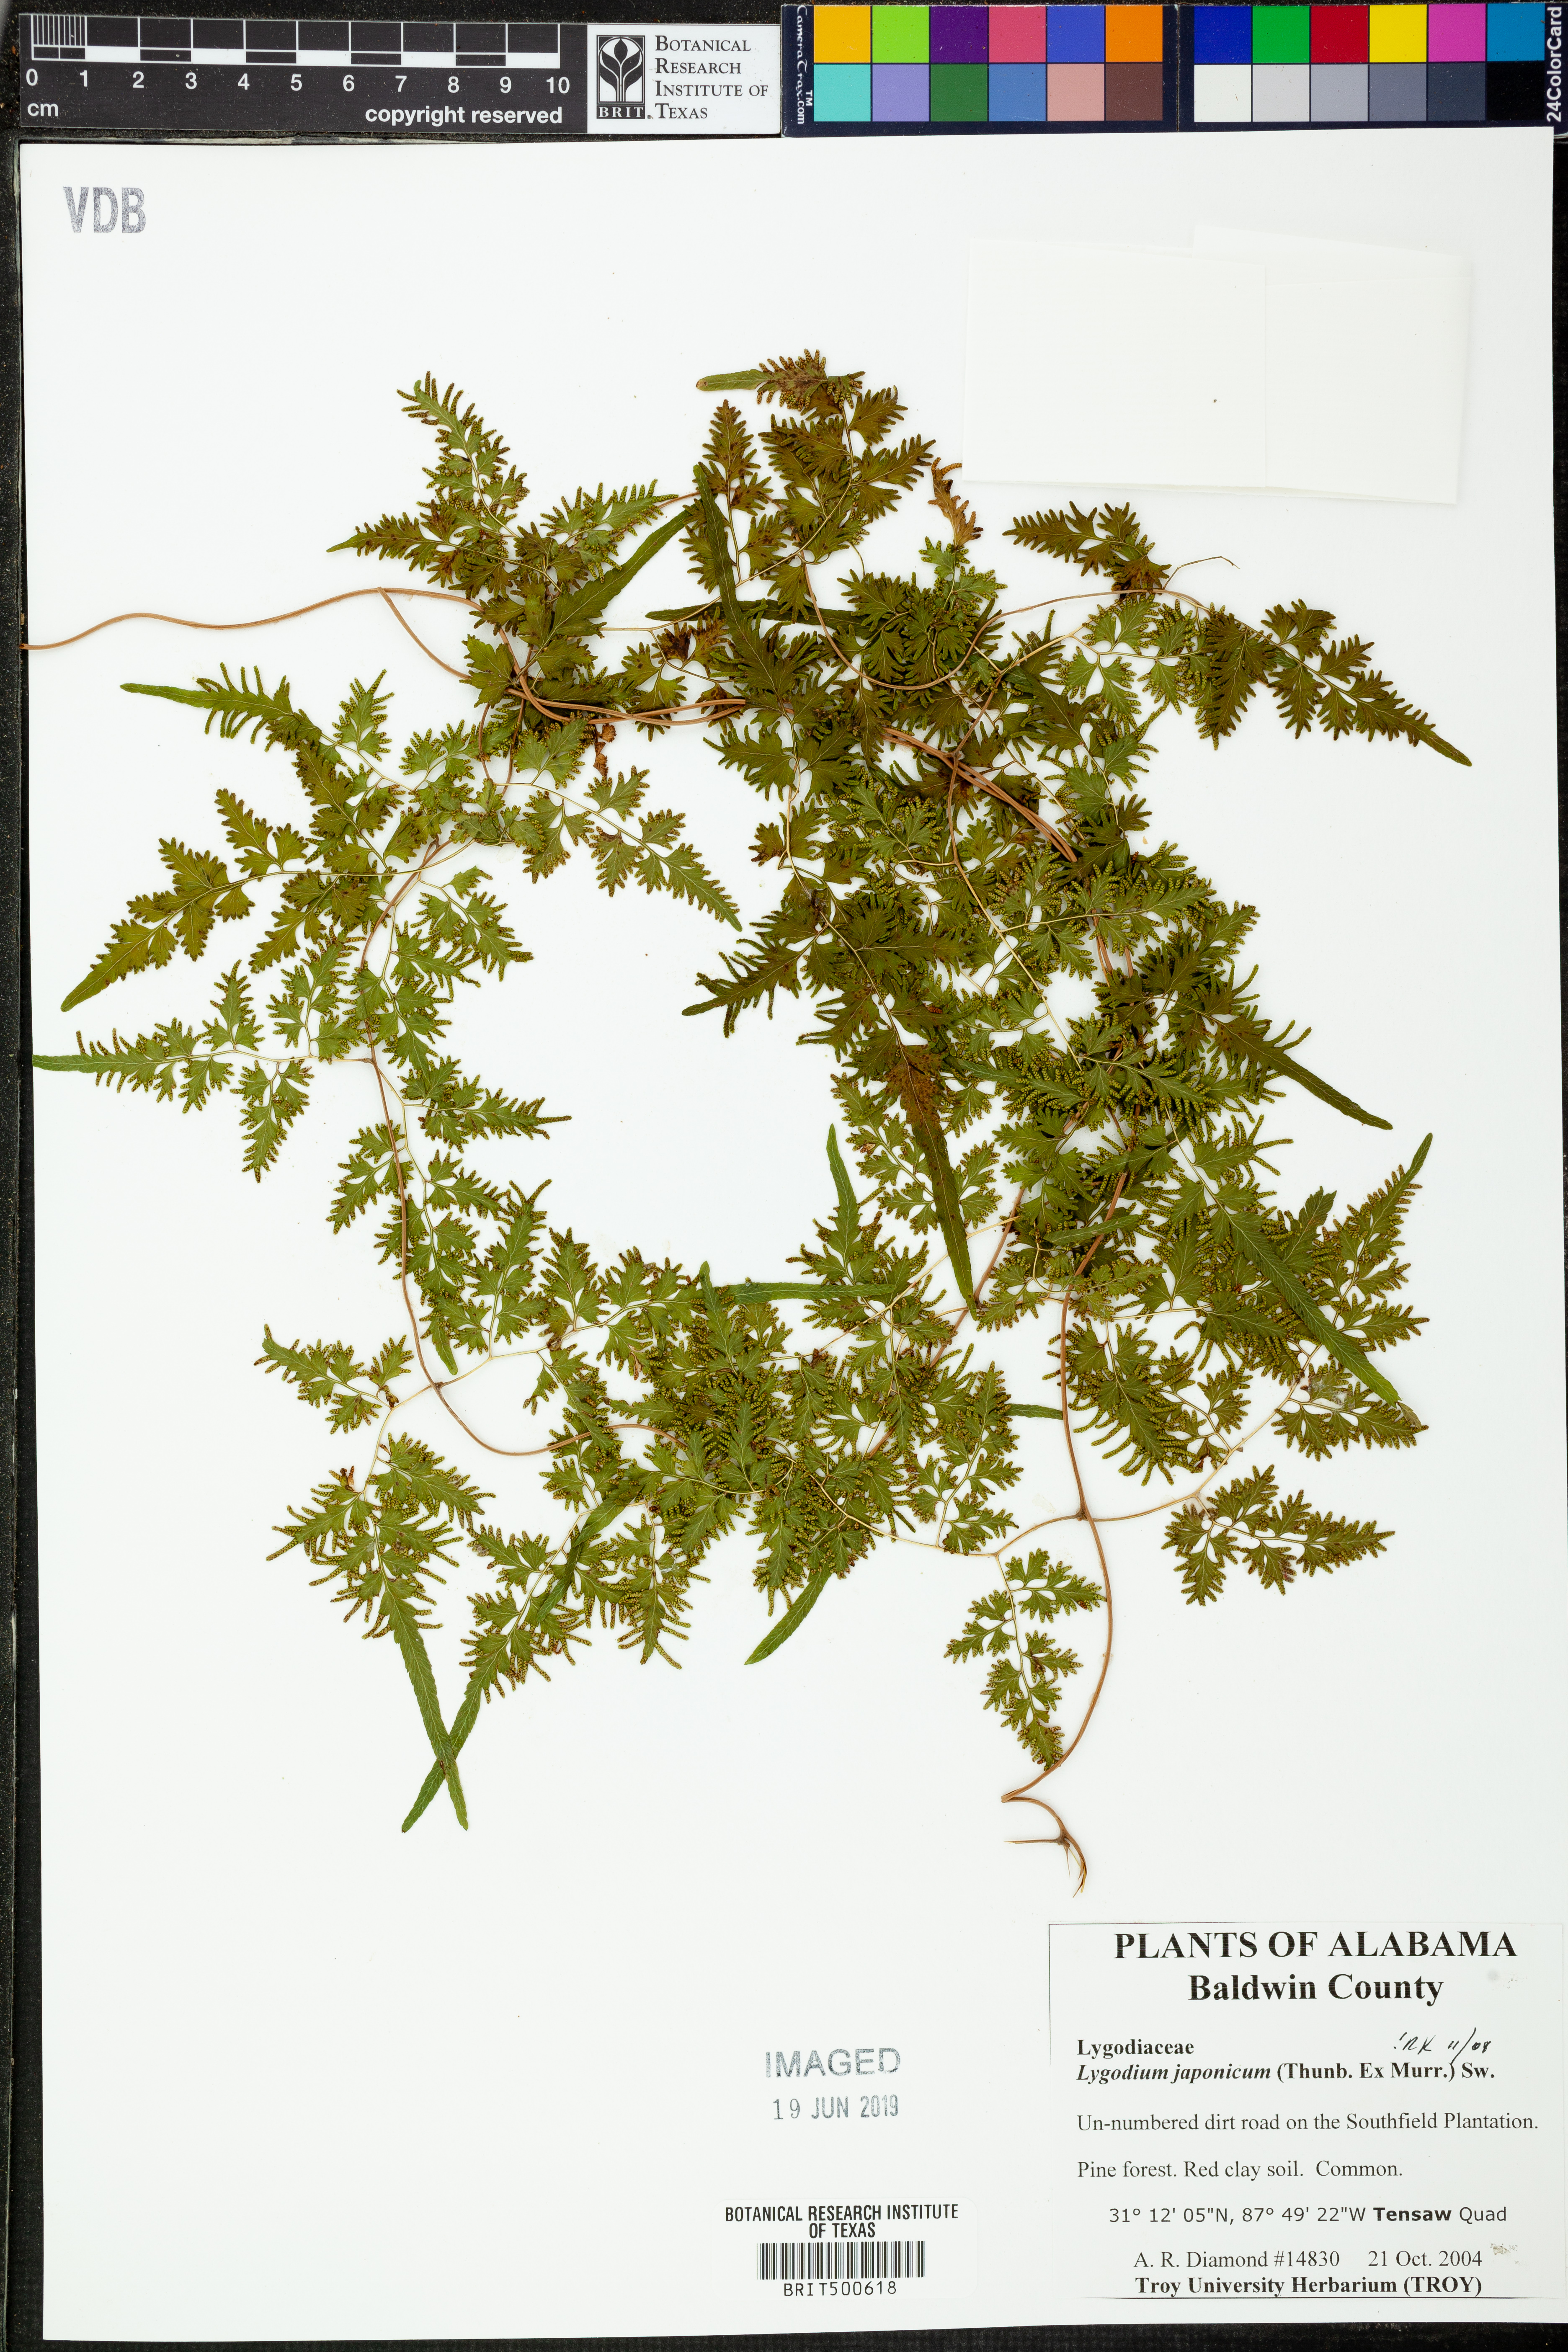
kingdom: Plantae
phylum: Tracheophyta
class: Polypodiopsida
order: Schizaeales
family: Lygodiaceae
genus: Lygodium
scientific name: Lygodium japonicum
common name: Japanese climbing fern
